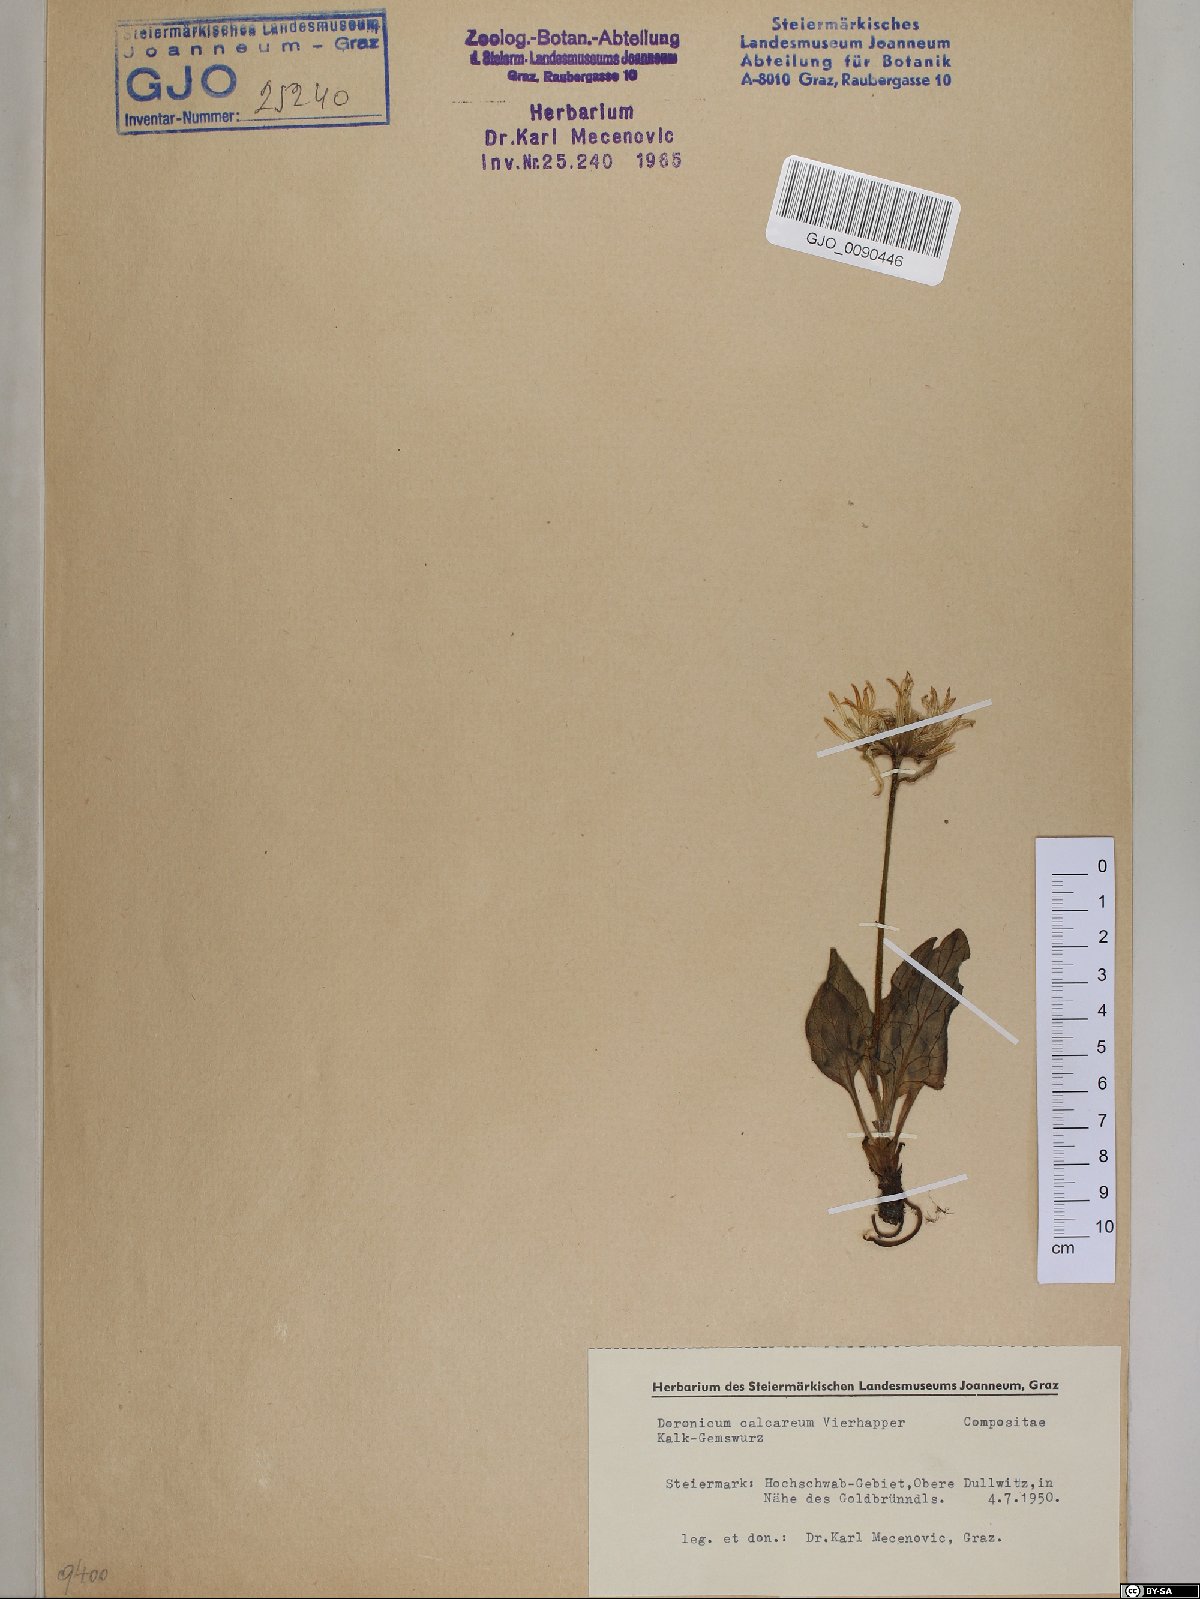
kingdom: Plantae
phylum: Tracheophyta
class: Magnoliopsida
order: Asterales
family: Asteraceae
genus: Doronicum
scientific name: Doronicum glaciale
